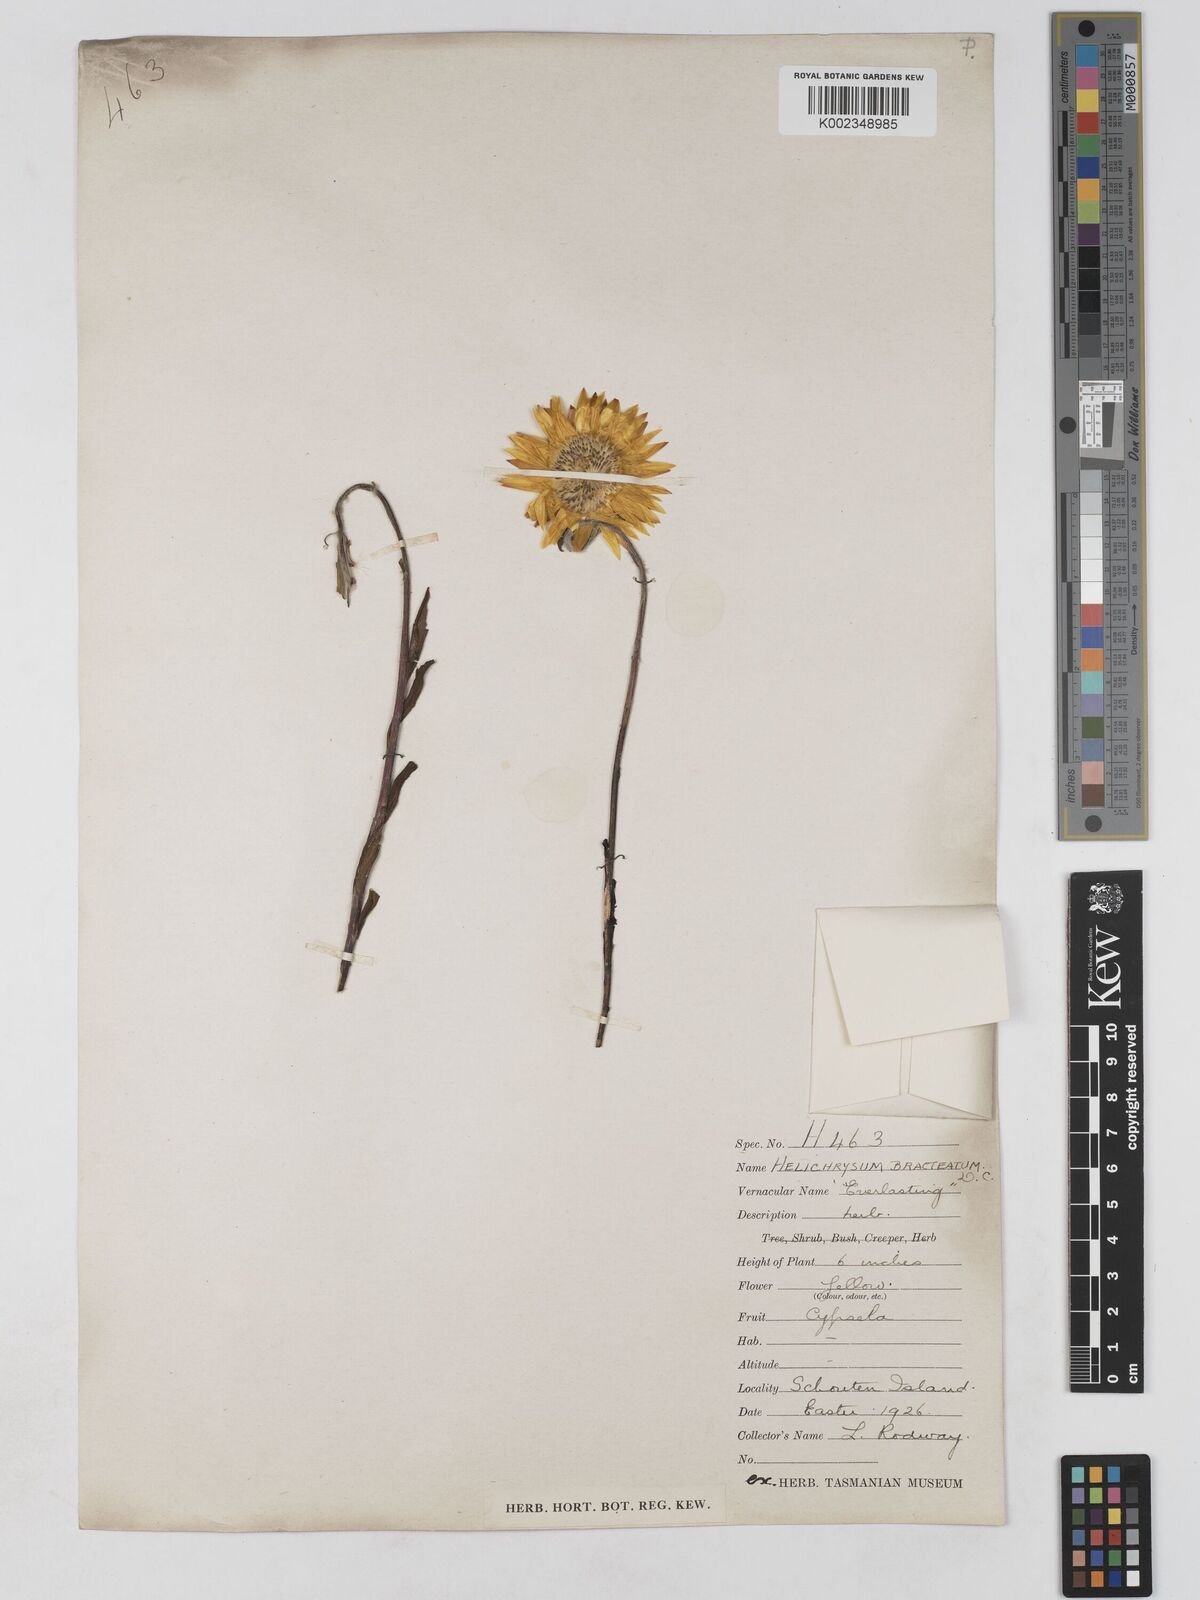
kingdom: Plantae
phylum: Tracheophyta
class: Magnoliopsida
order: Asterales
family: Asteraceae
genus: Xerochrysum
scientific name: Xerochrysum bracteatum
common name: Bracted strawflower
